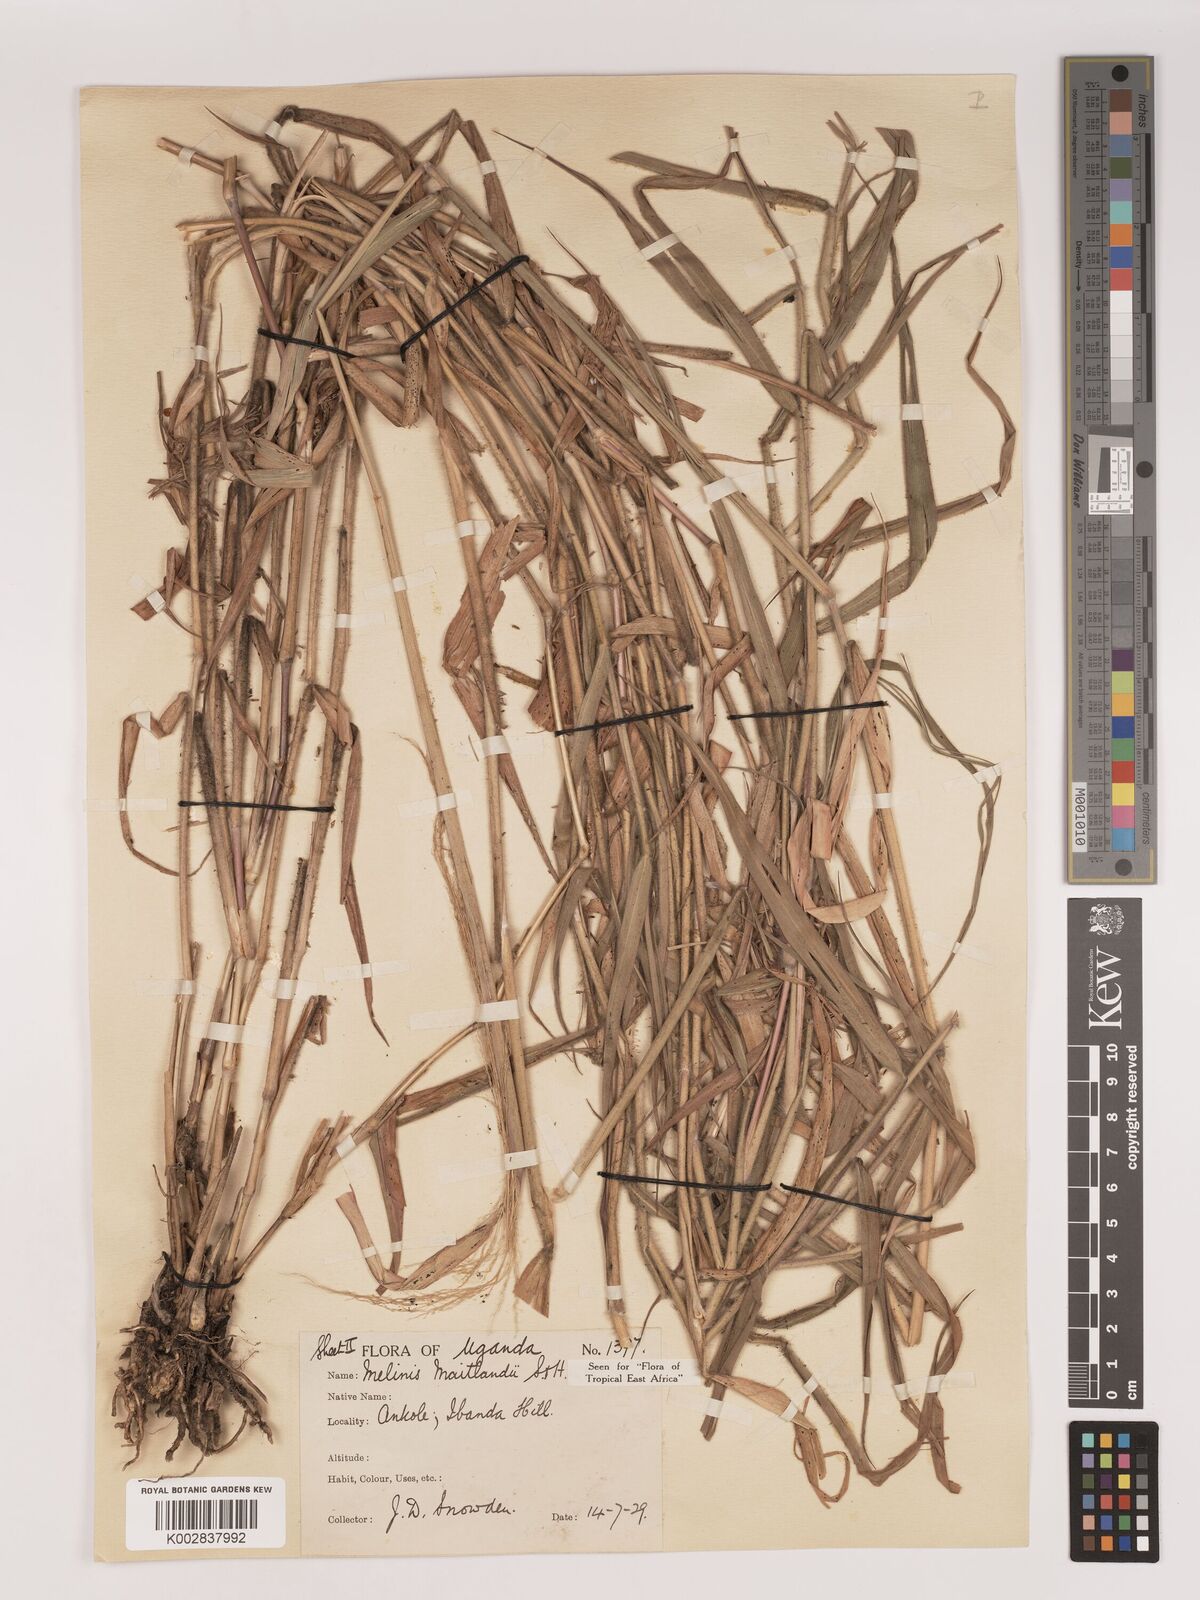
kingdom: Plantae
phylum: Tracheophyta
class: Liliopsida
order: Poales
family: Poaceae
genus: Melinis
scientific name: Melinis minutiflora
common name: Molassesgrass
